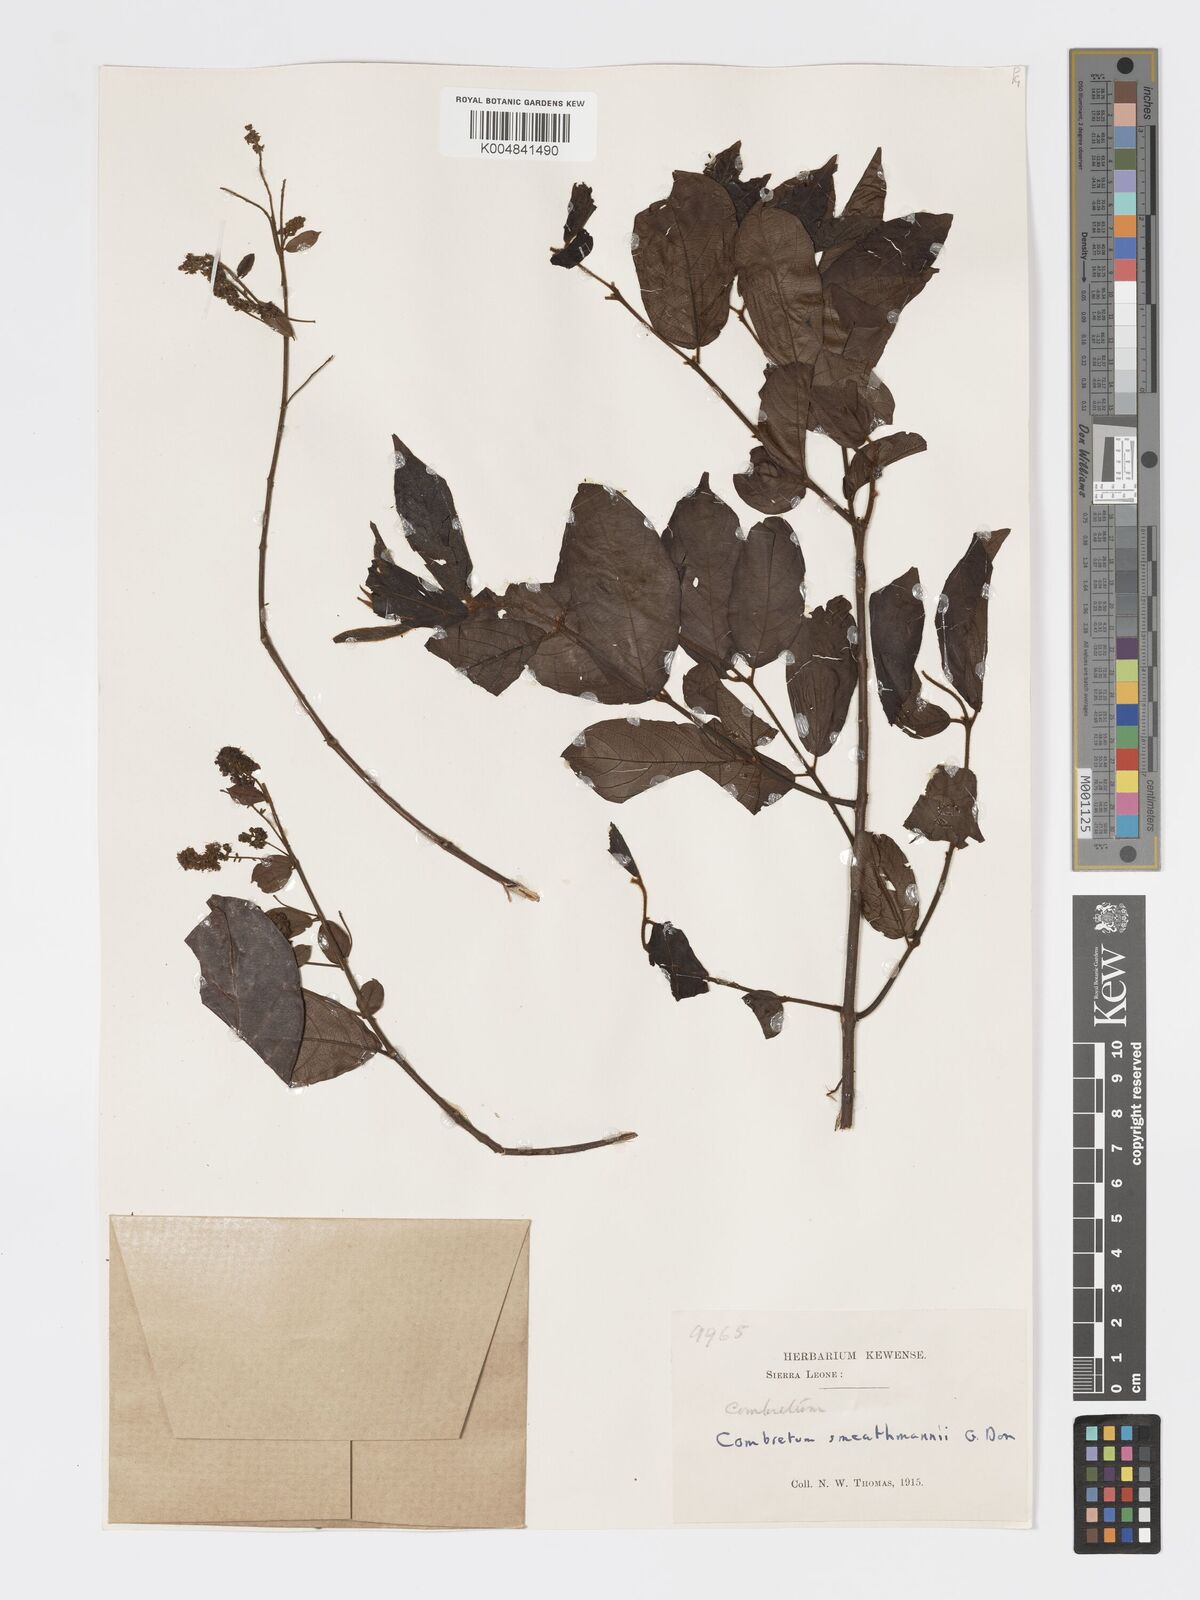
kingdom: Plantae
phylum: Tracheophyta
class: Magnoliopsida
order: Myrtales
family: Combretaceae
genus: Combretum
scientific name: Combretum mucronatum
